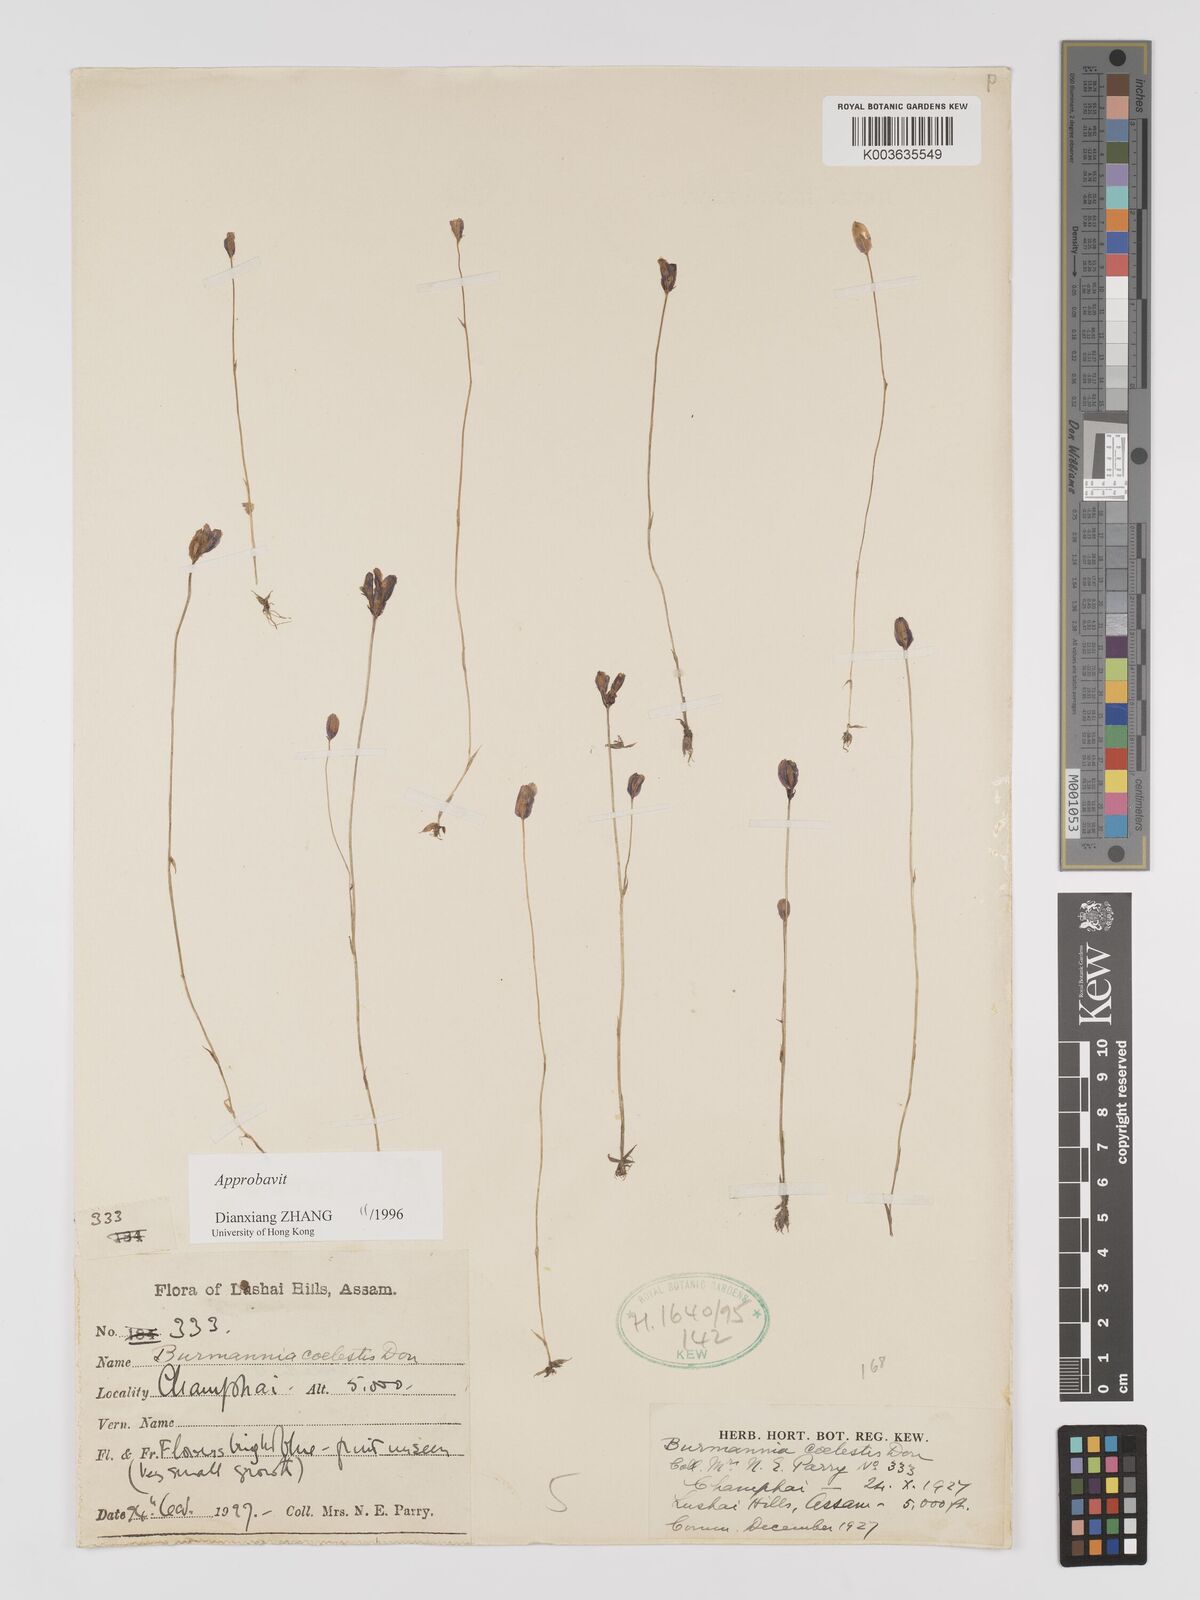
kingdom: Plantae
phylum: Tracheophyta
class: Liliopsida
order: Dioscoreales
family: Burmanniaceae
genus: Burmannia
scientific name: Burmannia coelestis
